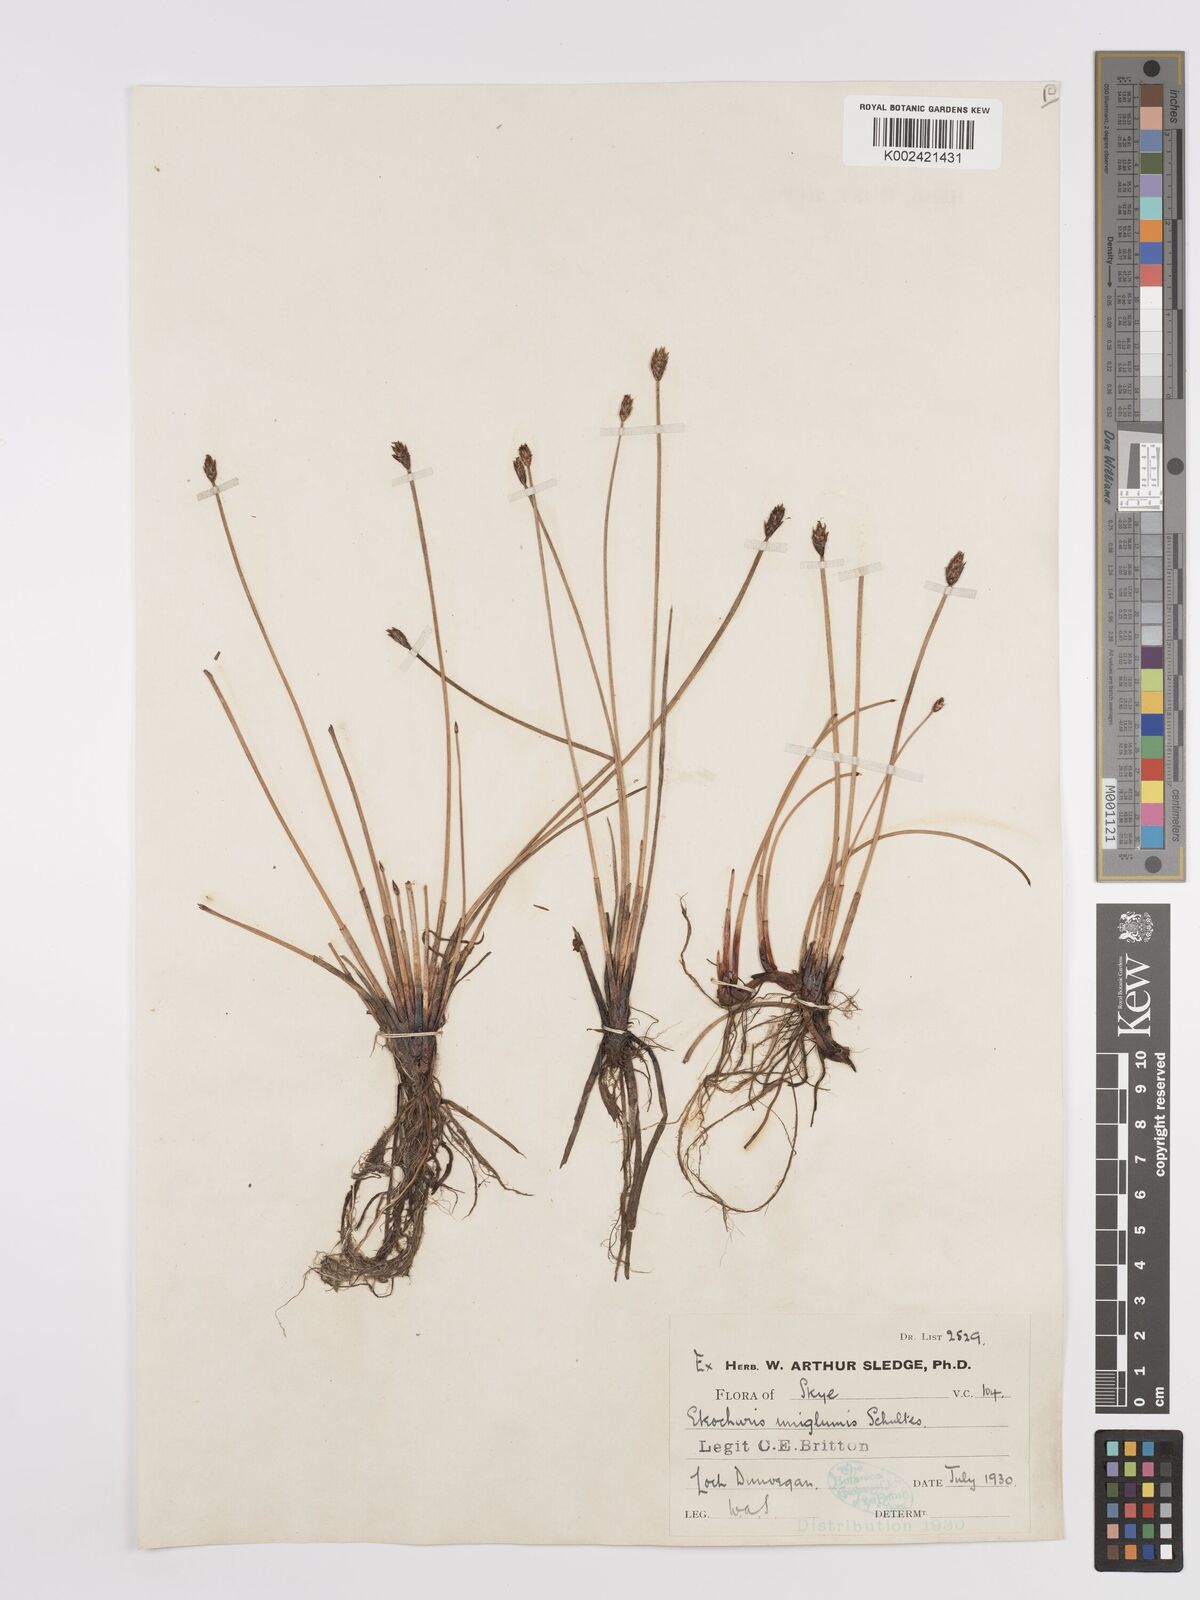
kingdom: Plantae
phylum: Tracheophyta
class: Liliopsida
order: Poales
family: Cyperaceae
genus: Eleocharis
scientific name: Eleocharis uniglumis
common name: Slender spike-rush
